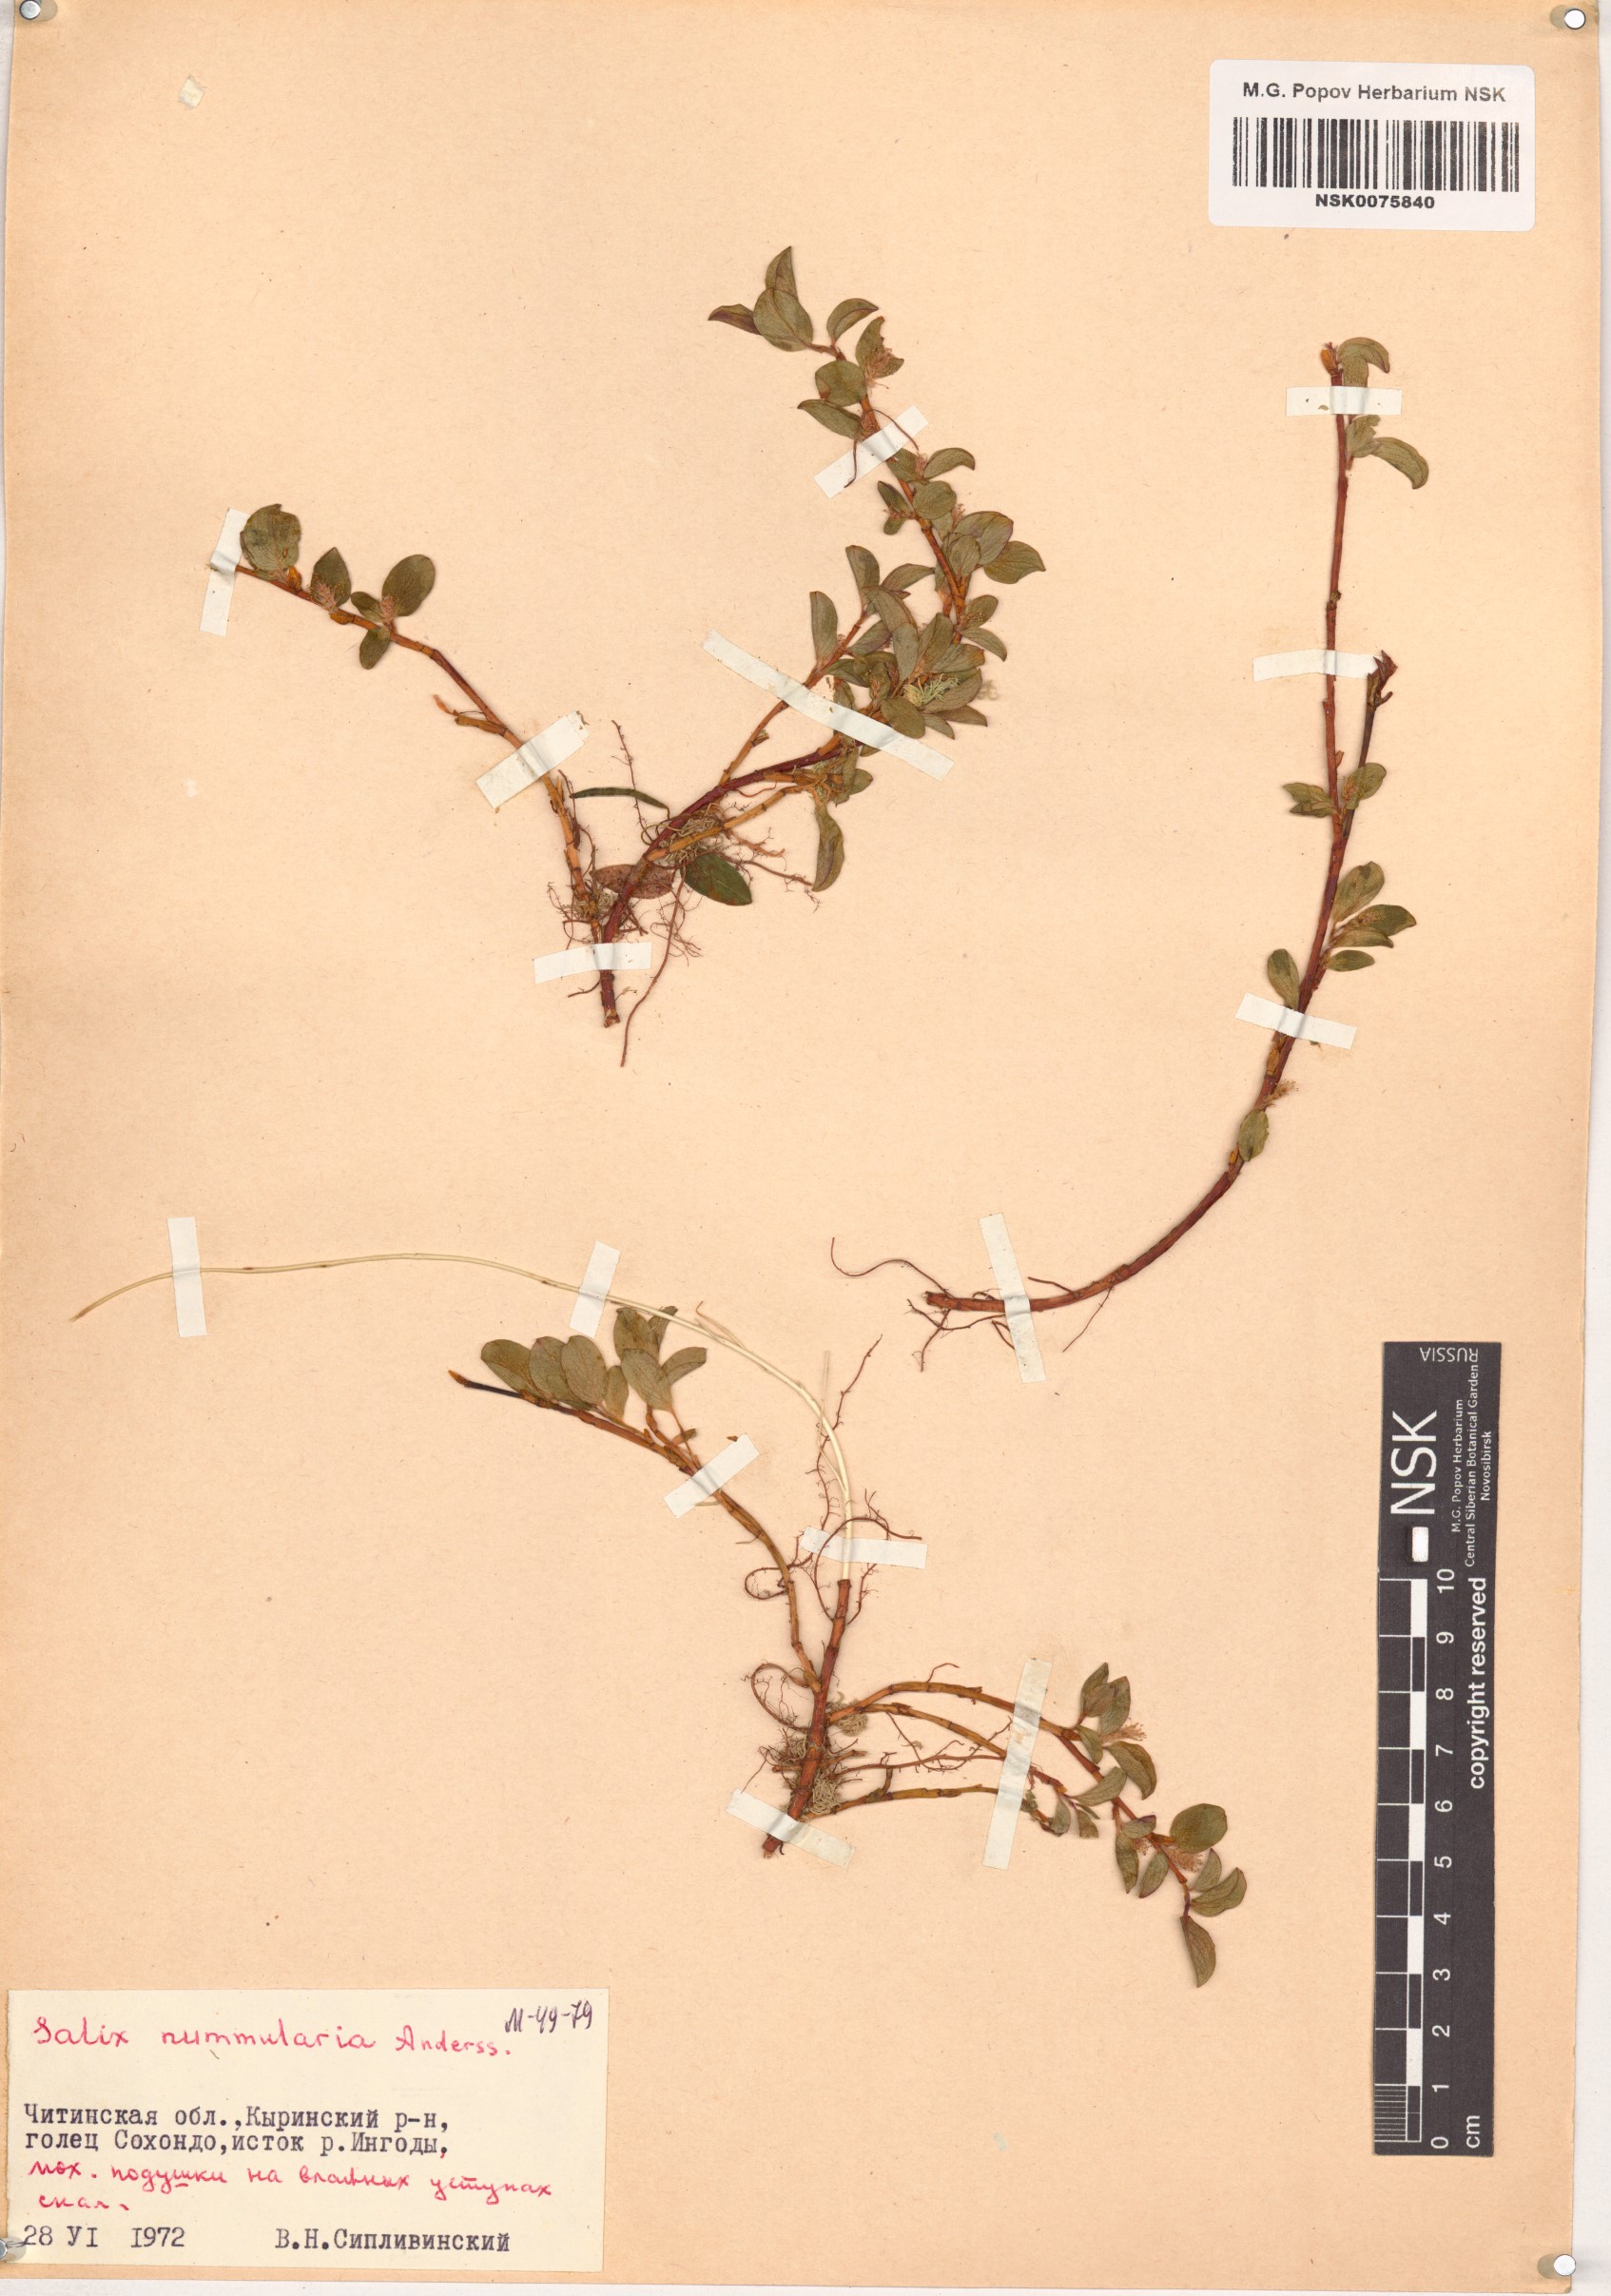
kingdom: Plantae
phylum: Tracheophyta
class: Magnoliopsida
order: Malpighiales
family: Salicaceae
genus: Salix
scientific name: Salix nummularia
